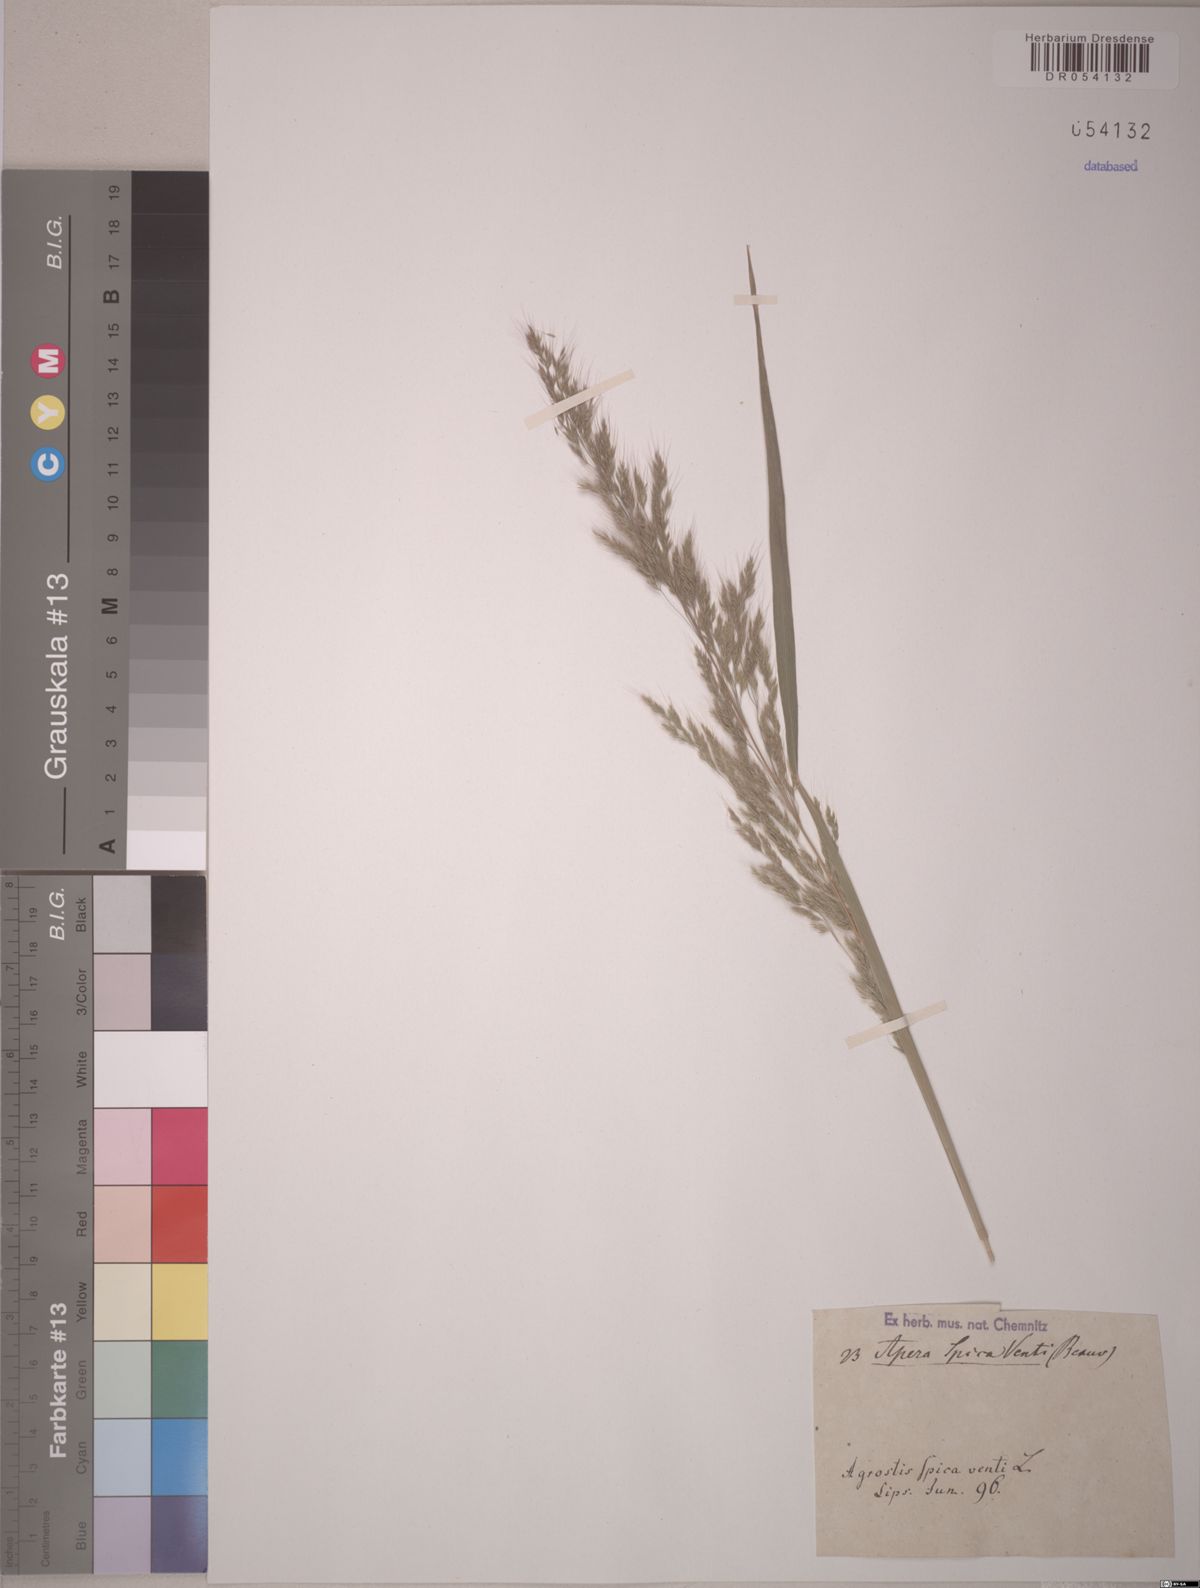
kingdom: Plantae
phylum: Tracheophyta
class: Liliopsida
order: Poales
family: Poaceae
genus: Apera
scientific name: Apera spica-venti
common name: Loose silky-bent
